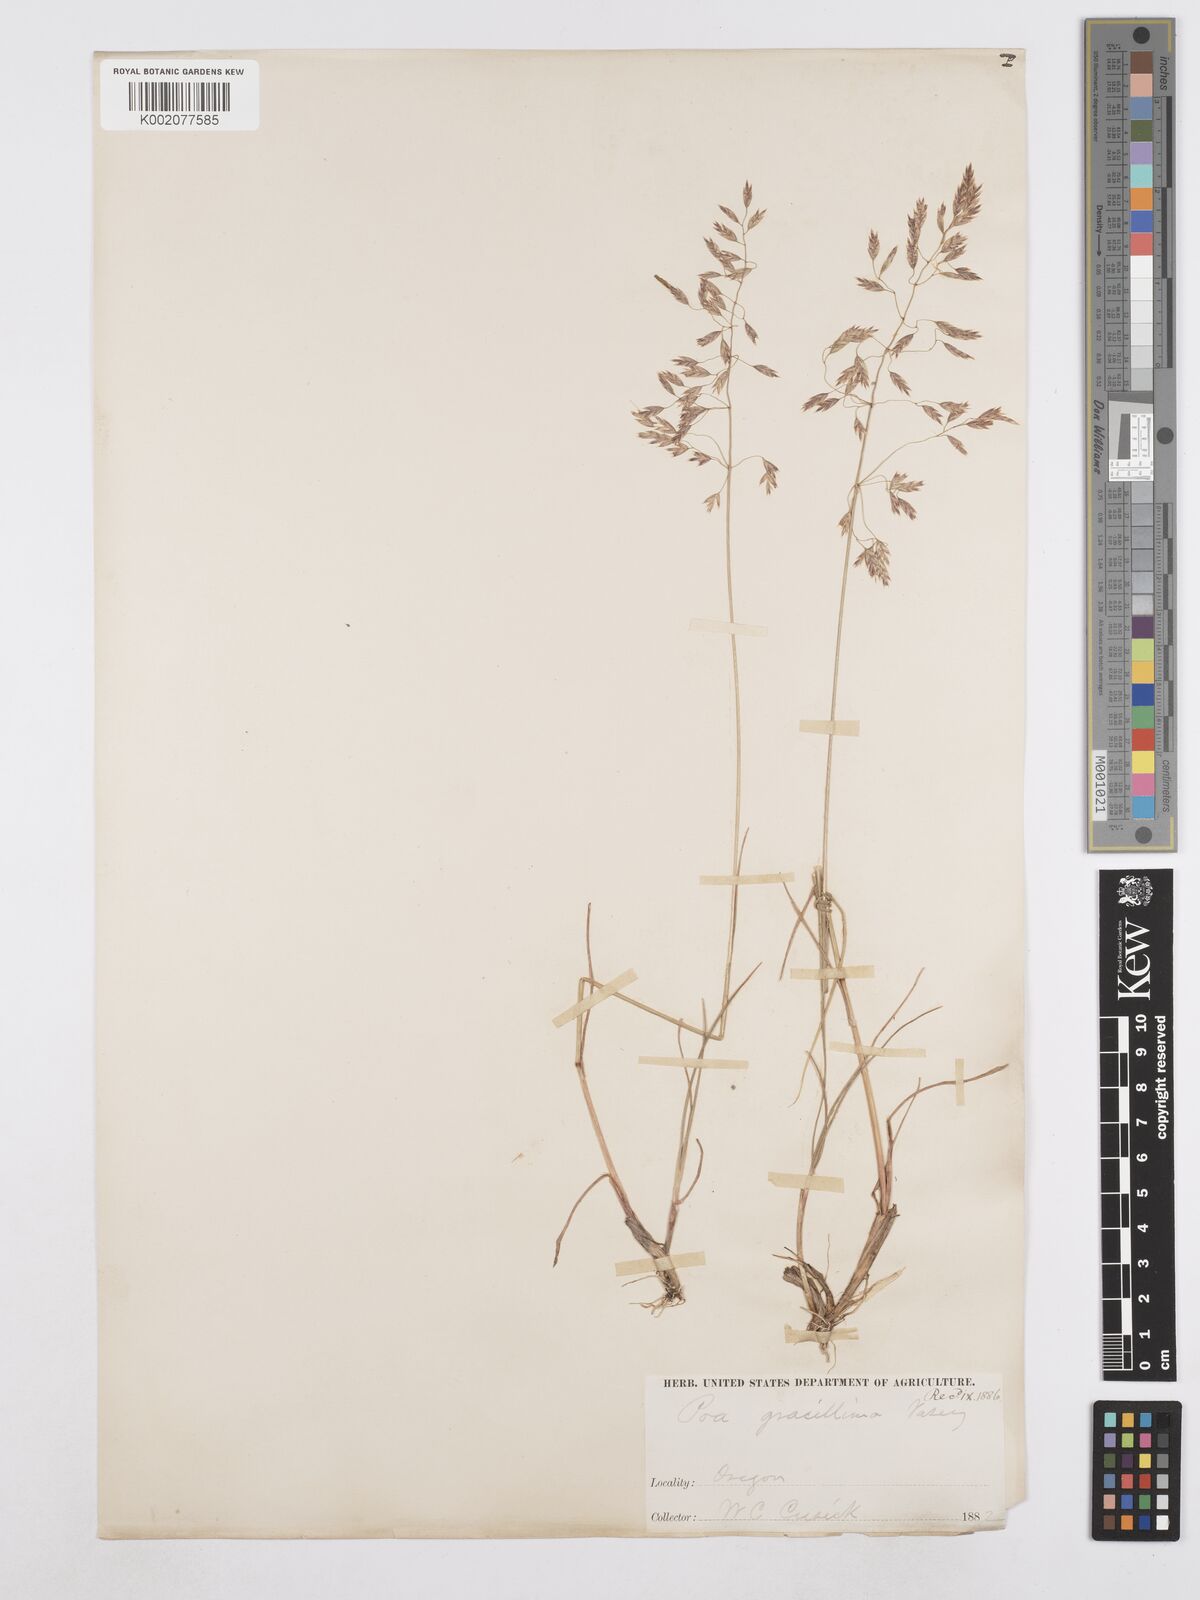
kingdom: Plantae
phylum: Tracheophyta
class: Liliopsida
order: Poales
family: Poaceae
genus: Poa
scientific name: Poa secunda
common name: Sandberg bluegrass
